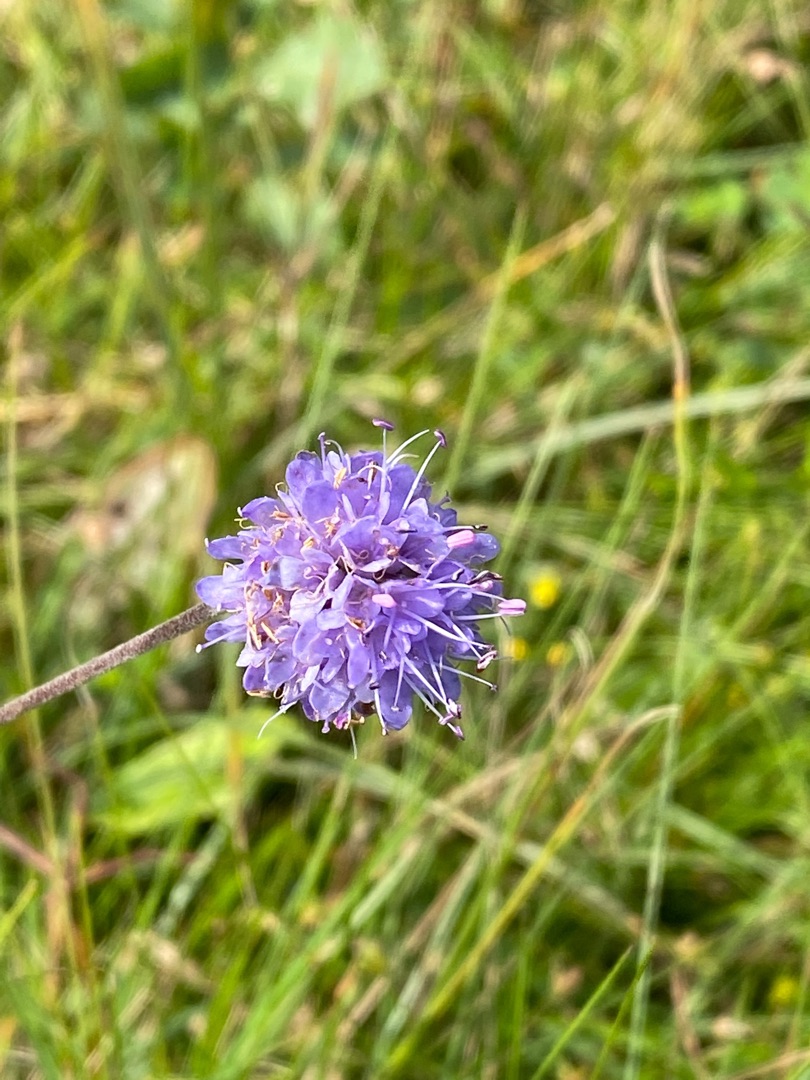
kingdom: Plantae
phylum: Tracheophyta
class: Magnoliopsida
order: Dipsacales
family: Caprifoliaceae
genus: Succisa
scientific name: Succisa pratensis
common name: Djævelsbid
